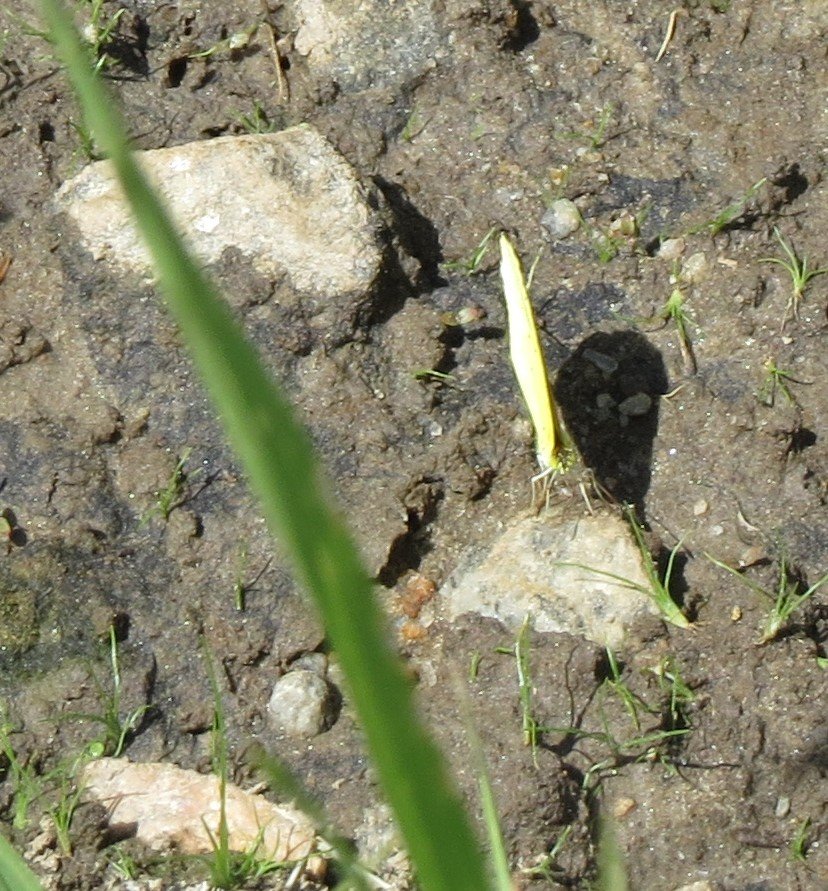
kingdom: Animalia
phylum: Arthropoda
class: Insecta
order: Lepidoptera
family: Pieridae
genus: Pyrisitia
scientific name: Pyrisitia lisa
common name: Little Yellow
